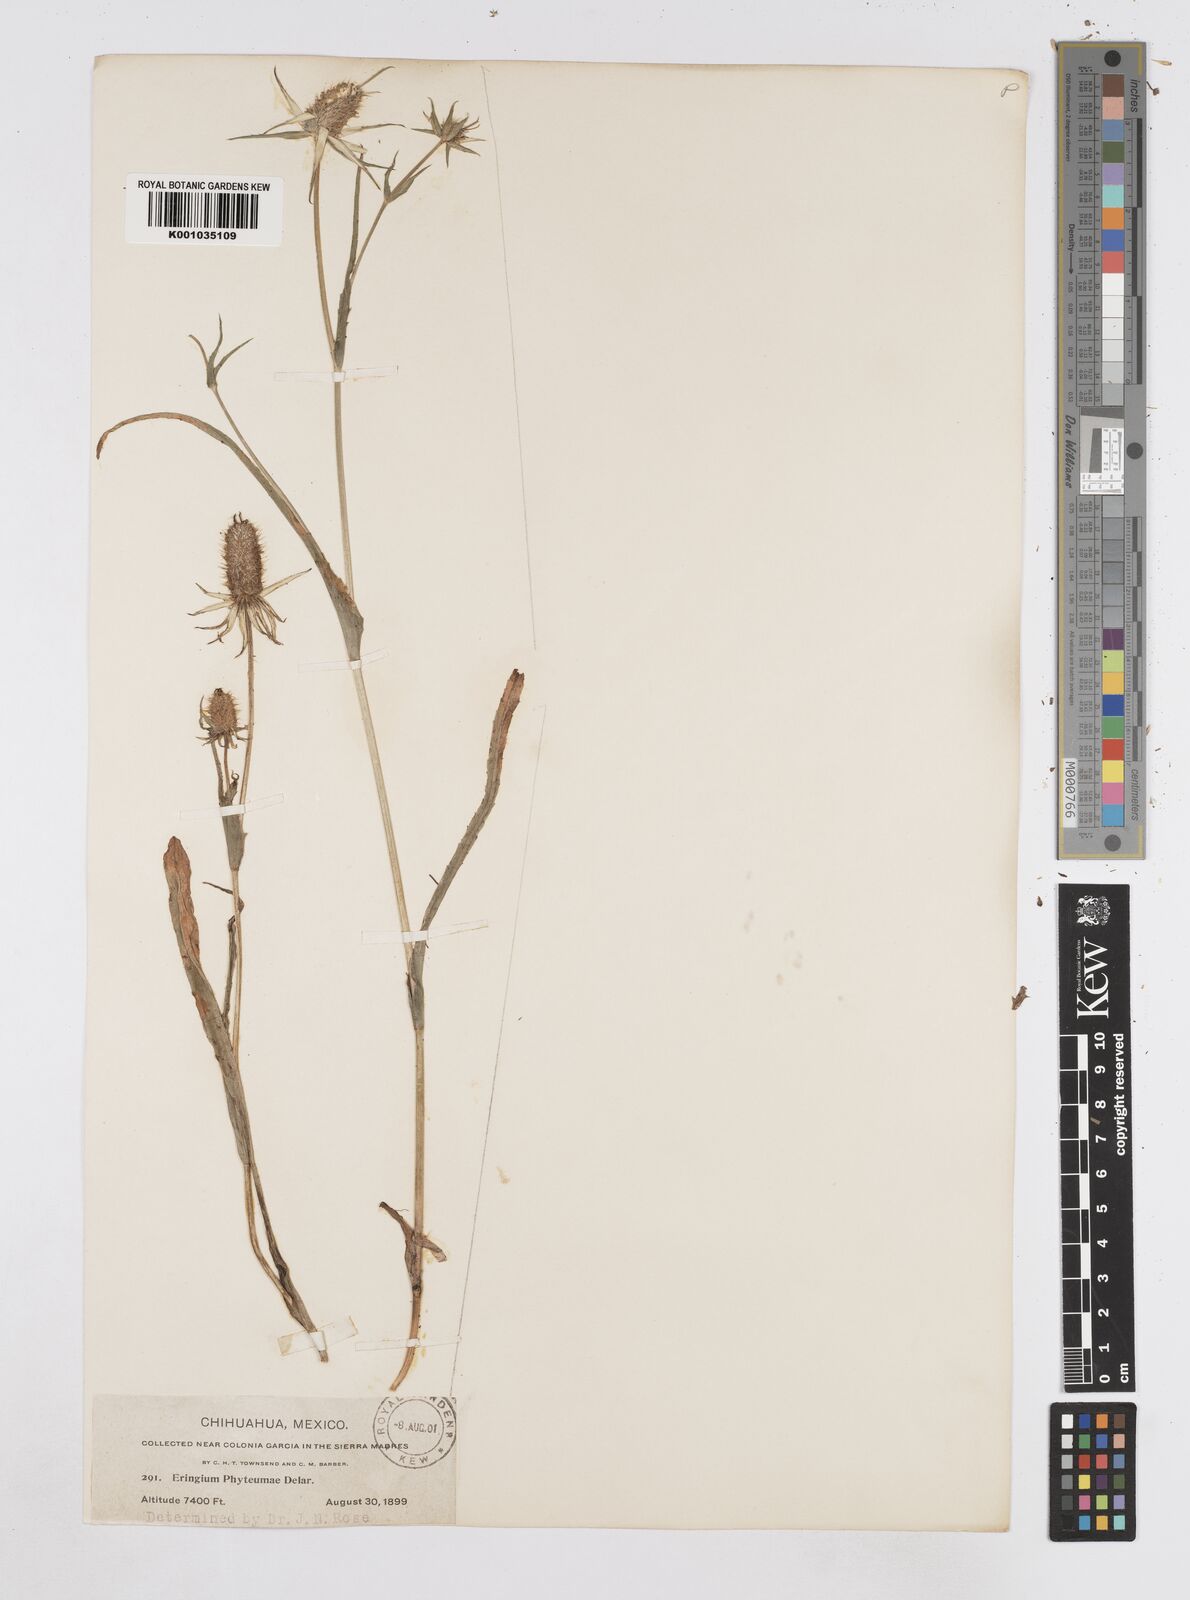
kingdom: Plantae
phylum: Tracheophyta
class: Magnoliopsida
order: Apiales
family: Apiaceae
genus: Eryngium
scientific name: Eryngium phyteumae
